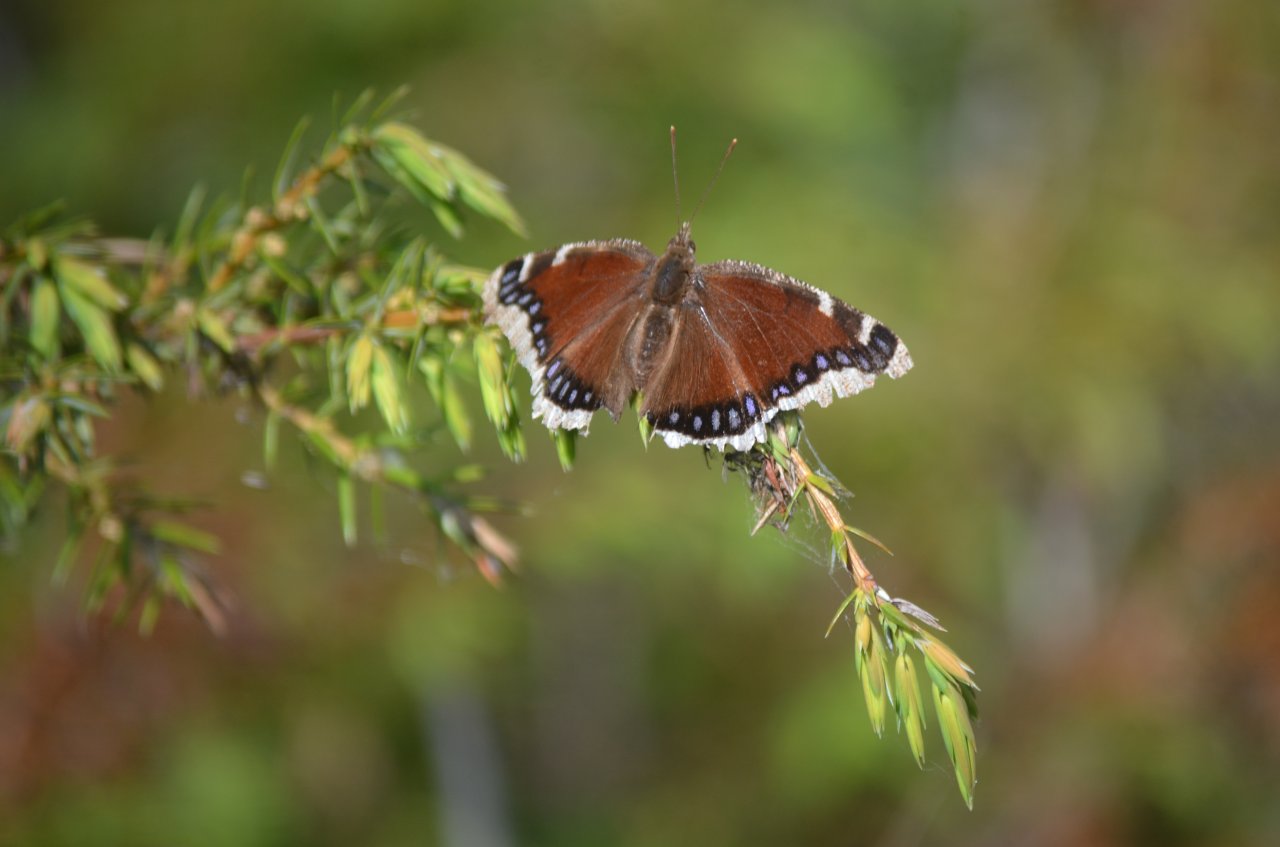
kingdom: Animalia
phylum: Arthropoda
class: Insecta
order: Lepidoptera
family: Nymphalidae
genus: Nymphalis
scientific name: Nymphalis antiopa
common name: Mourning Cloak
